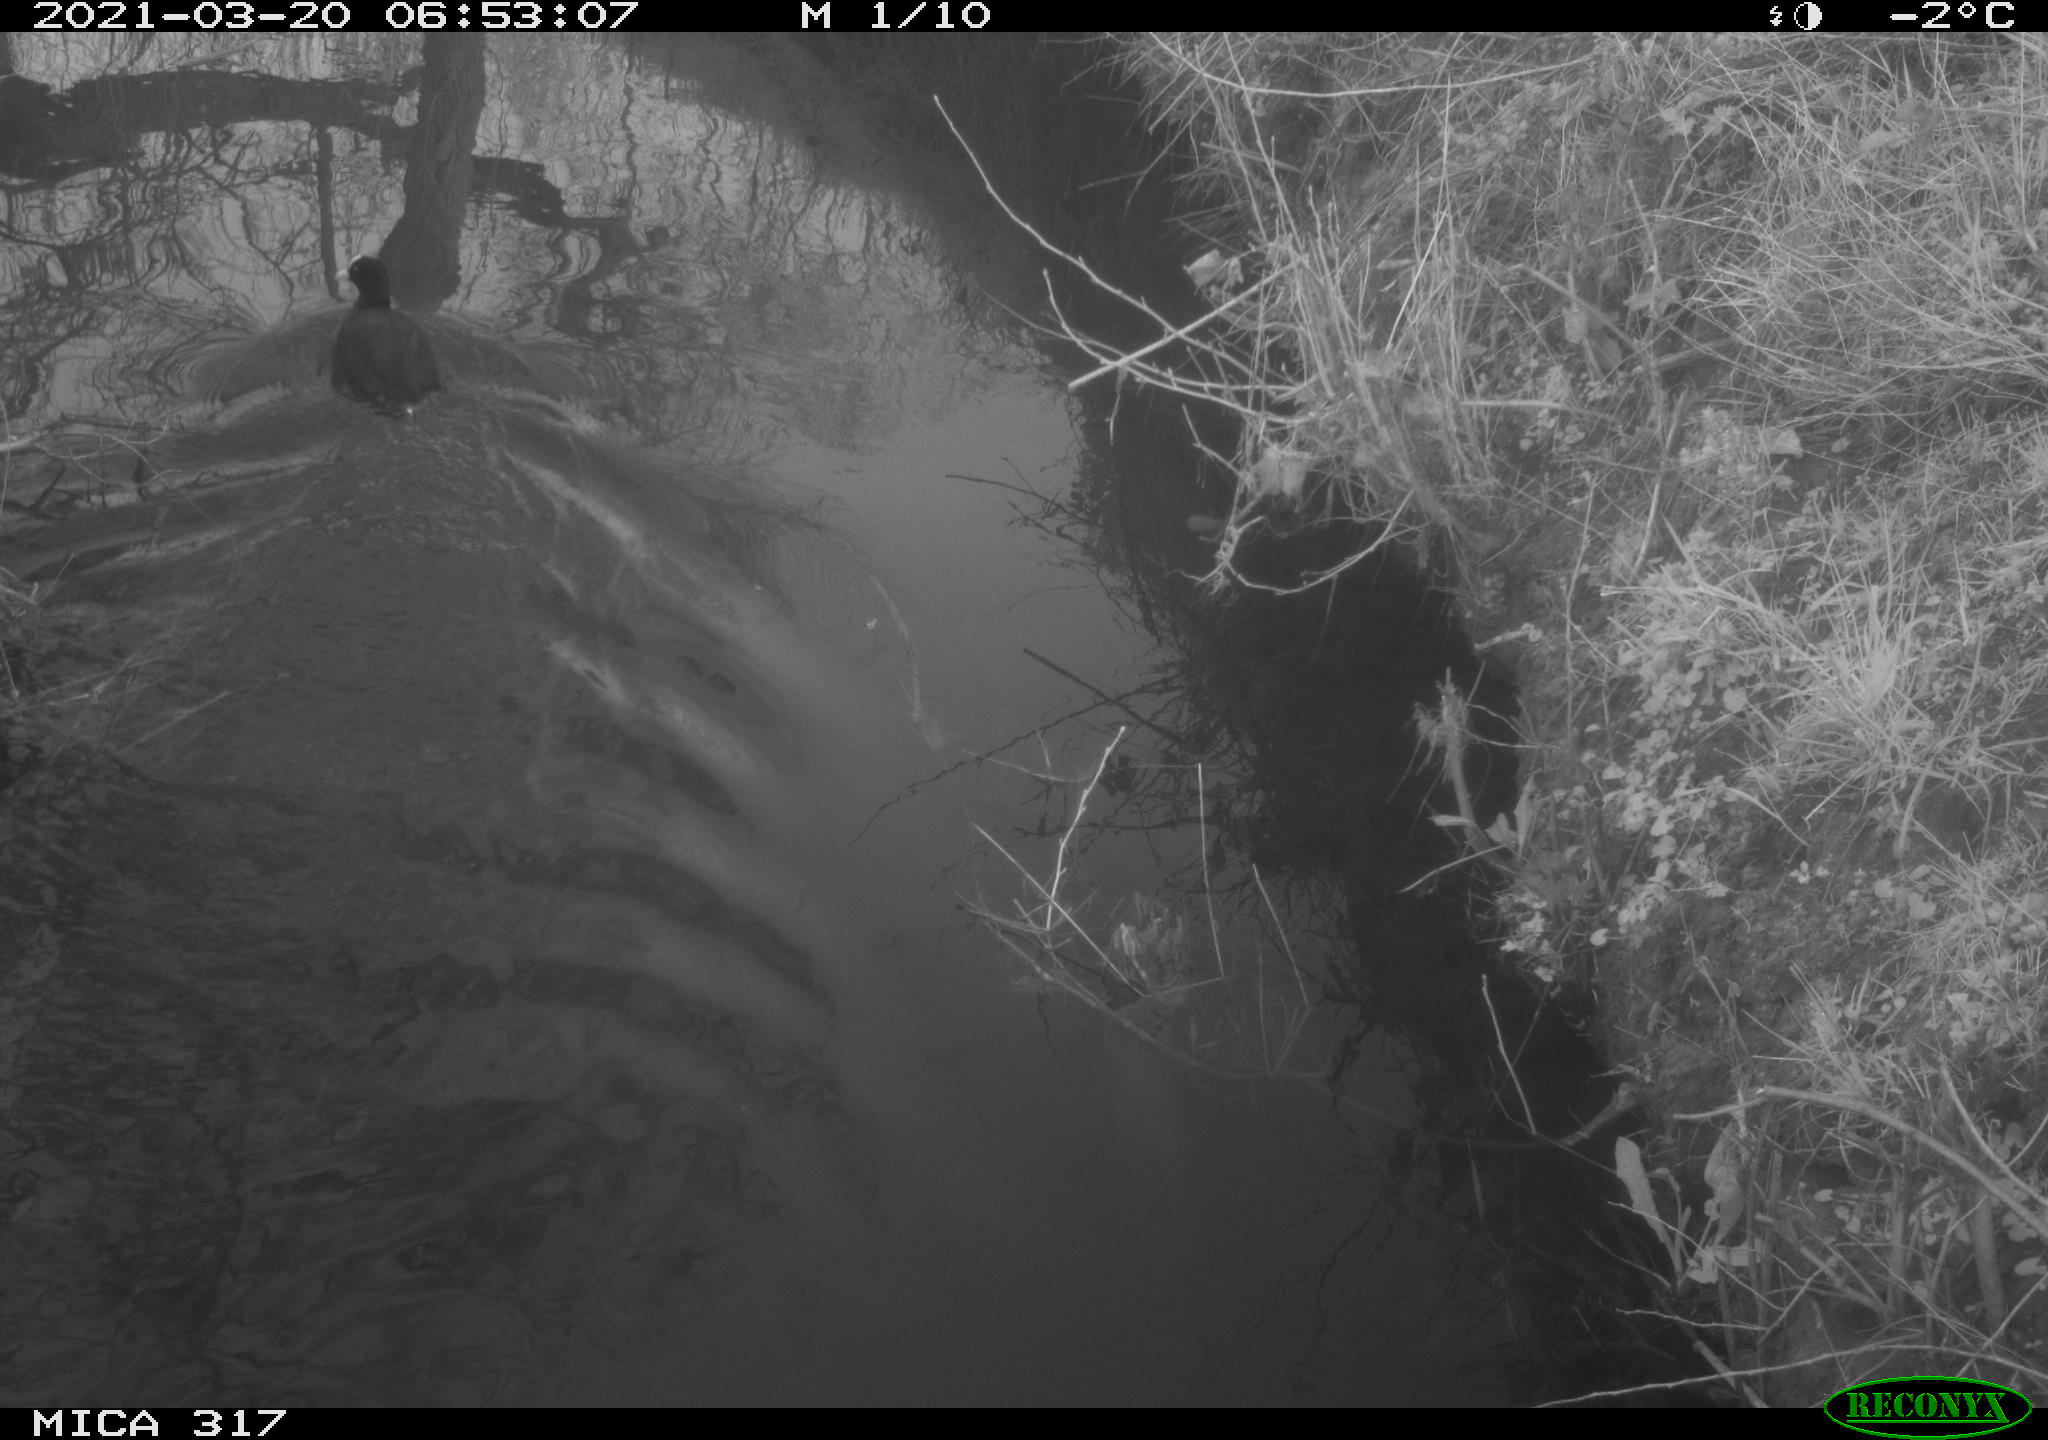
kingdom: Animalia
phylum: Chordata
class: Aves
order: Gruiformes
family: Rallidae
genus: Fulica
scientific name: Fulica atra
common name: Eurasian coot
